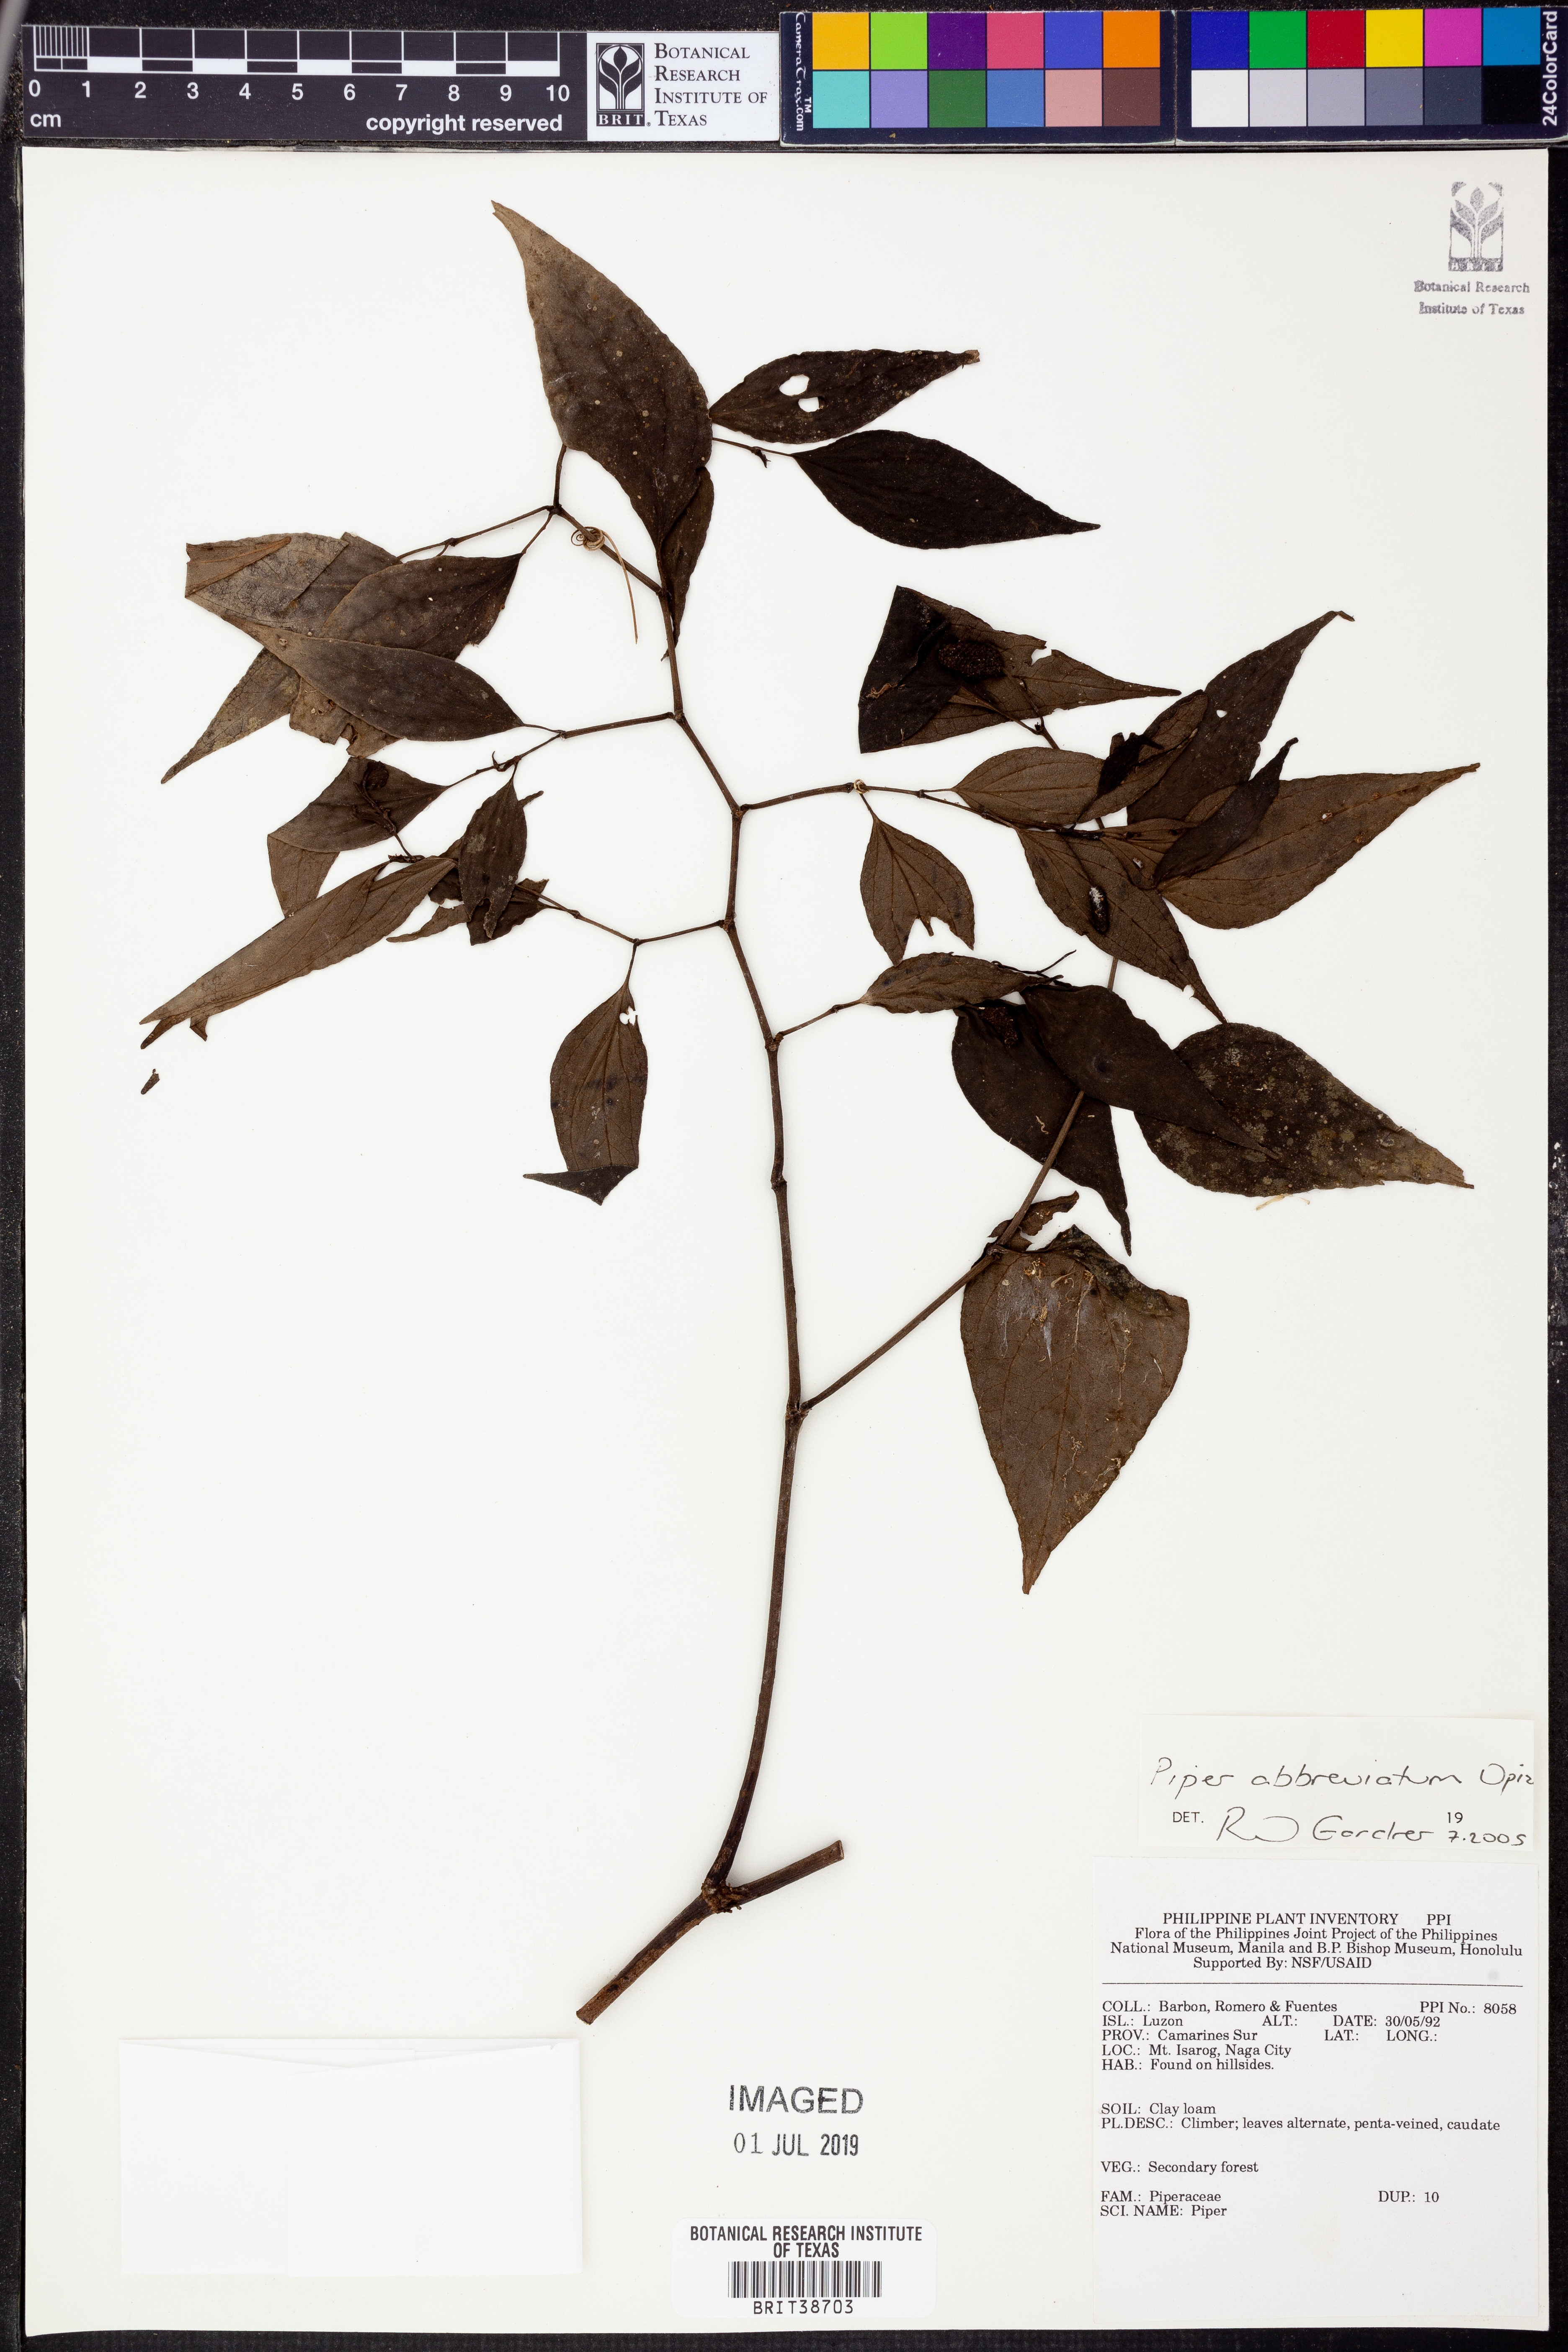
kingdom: Plantae
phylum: Tracheophyta
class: Magnoliopsida
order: Piperales
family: Piperaceae
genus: Piper
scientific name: Piper abbreviatum
